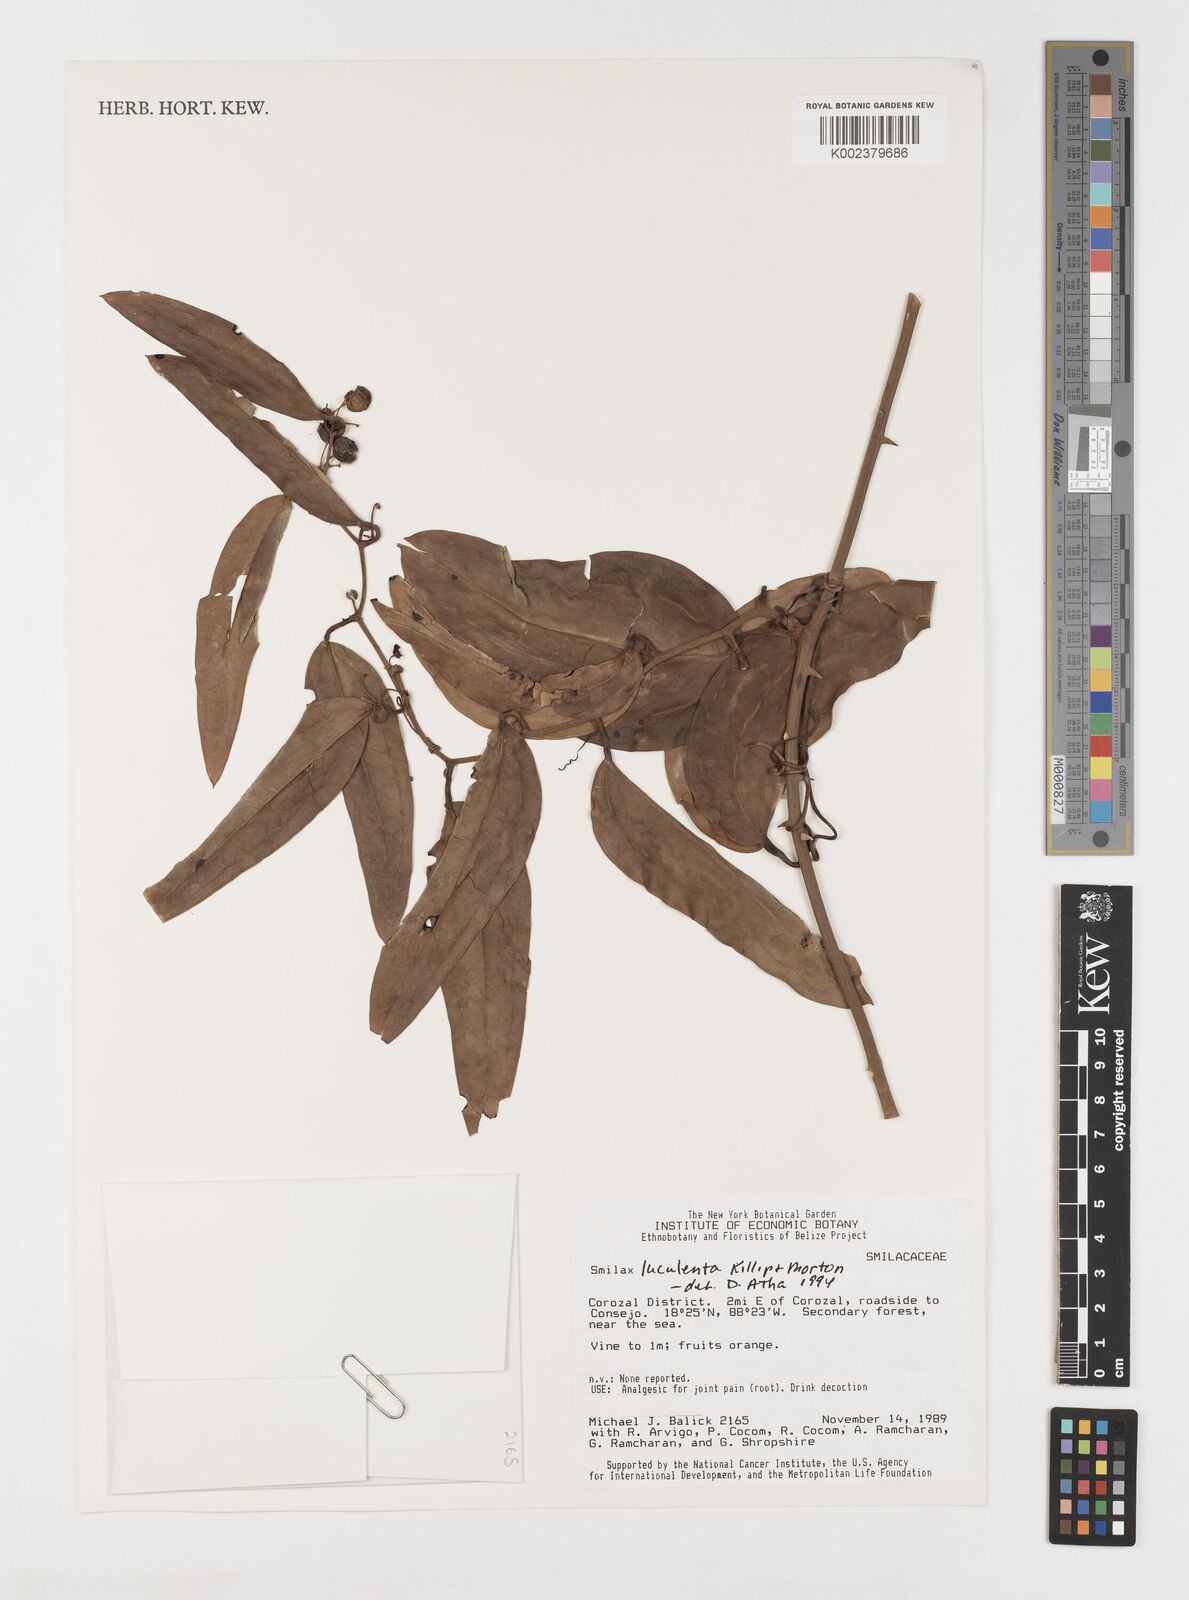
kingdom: Plantae
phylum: Tracheophyta
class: Liliopsida
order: Liliales
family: Smilacaceae
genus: Smilax
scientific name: Smilax spinosa
